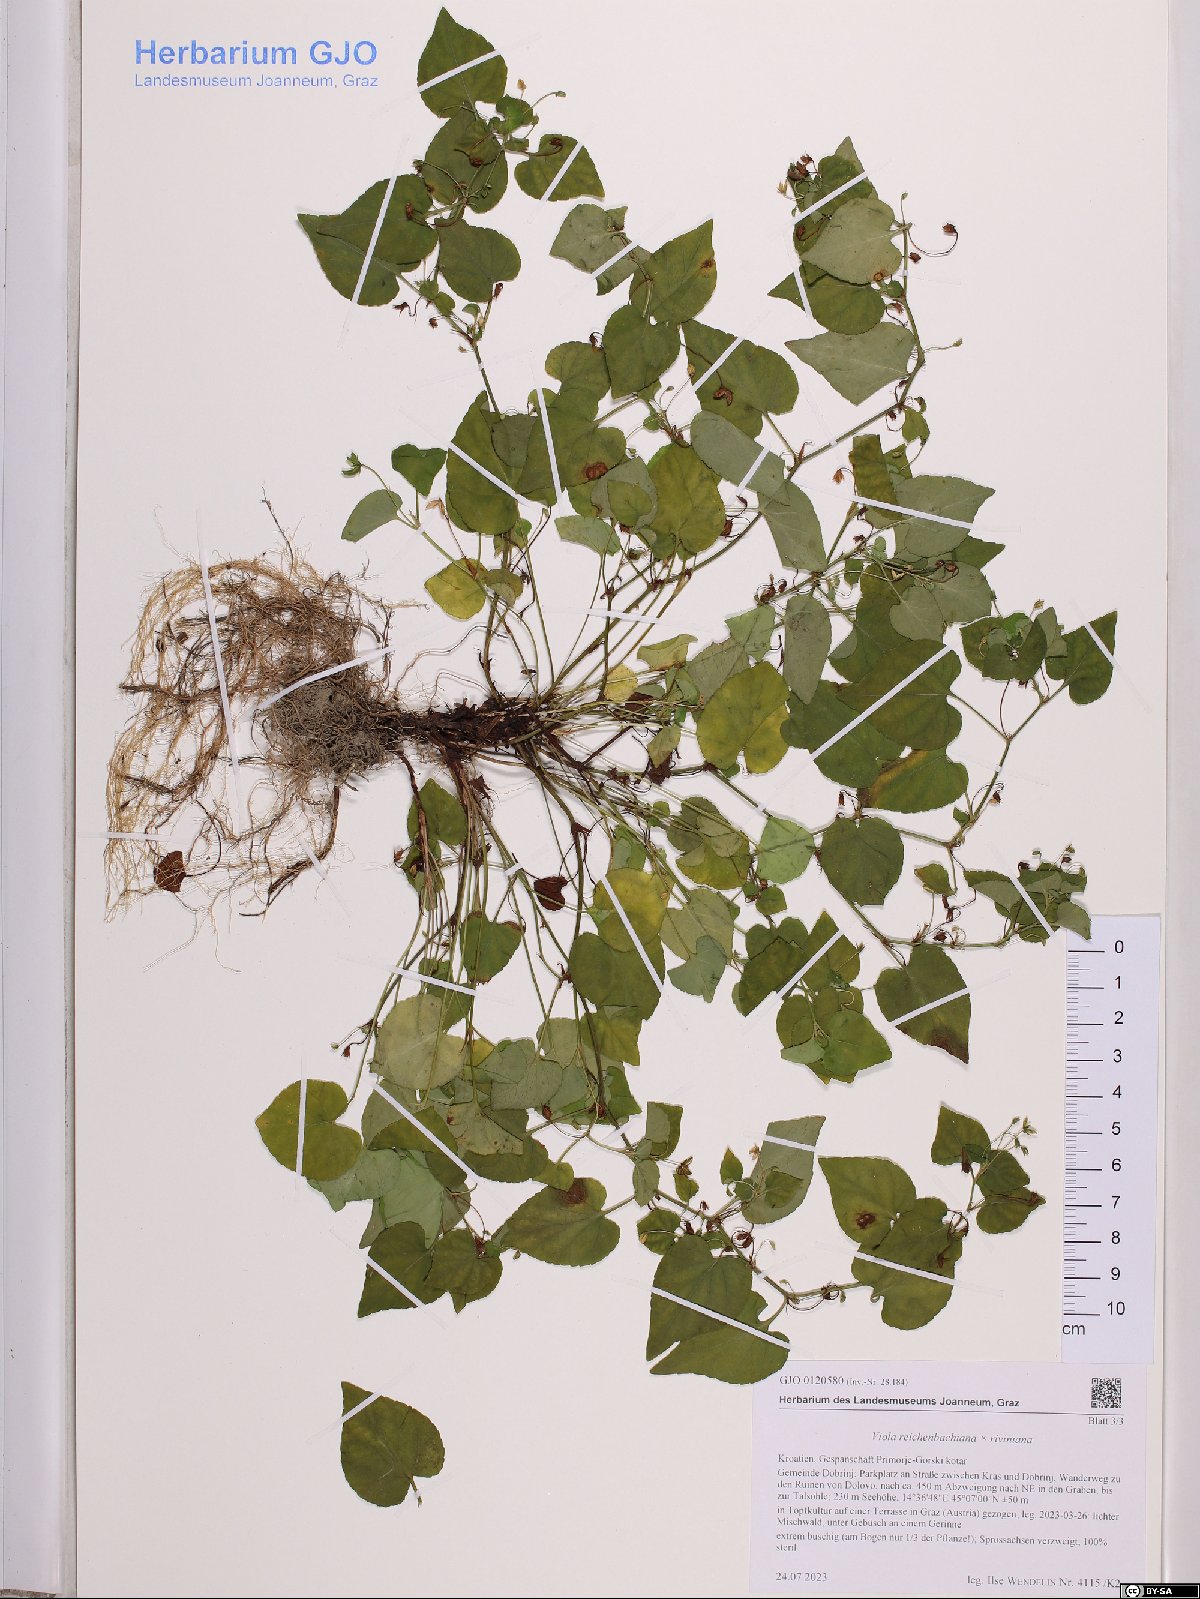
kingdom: Plantae
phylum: Tracheophyta
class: Magnoliopsida
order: Malpighiales
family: Violaceae
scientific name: Violaceae
